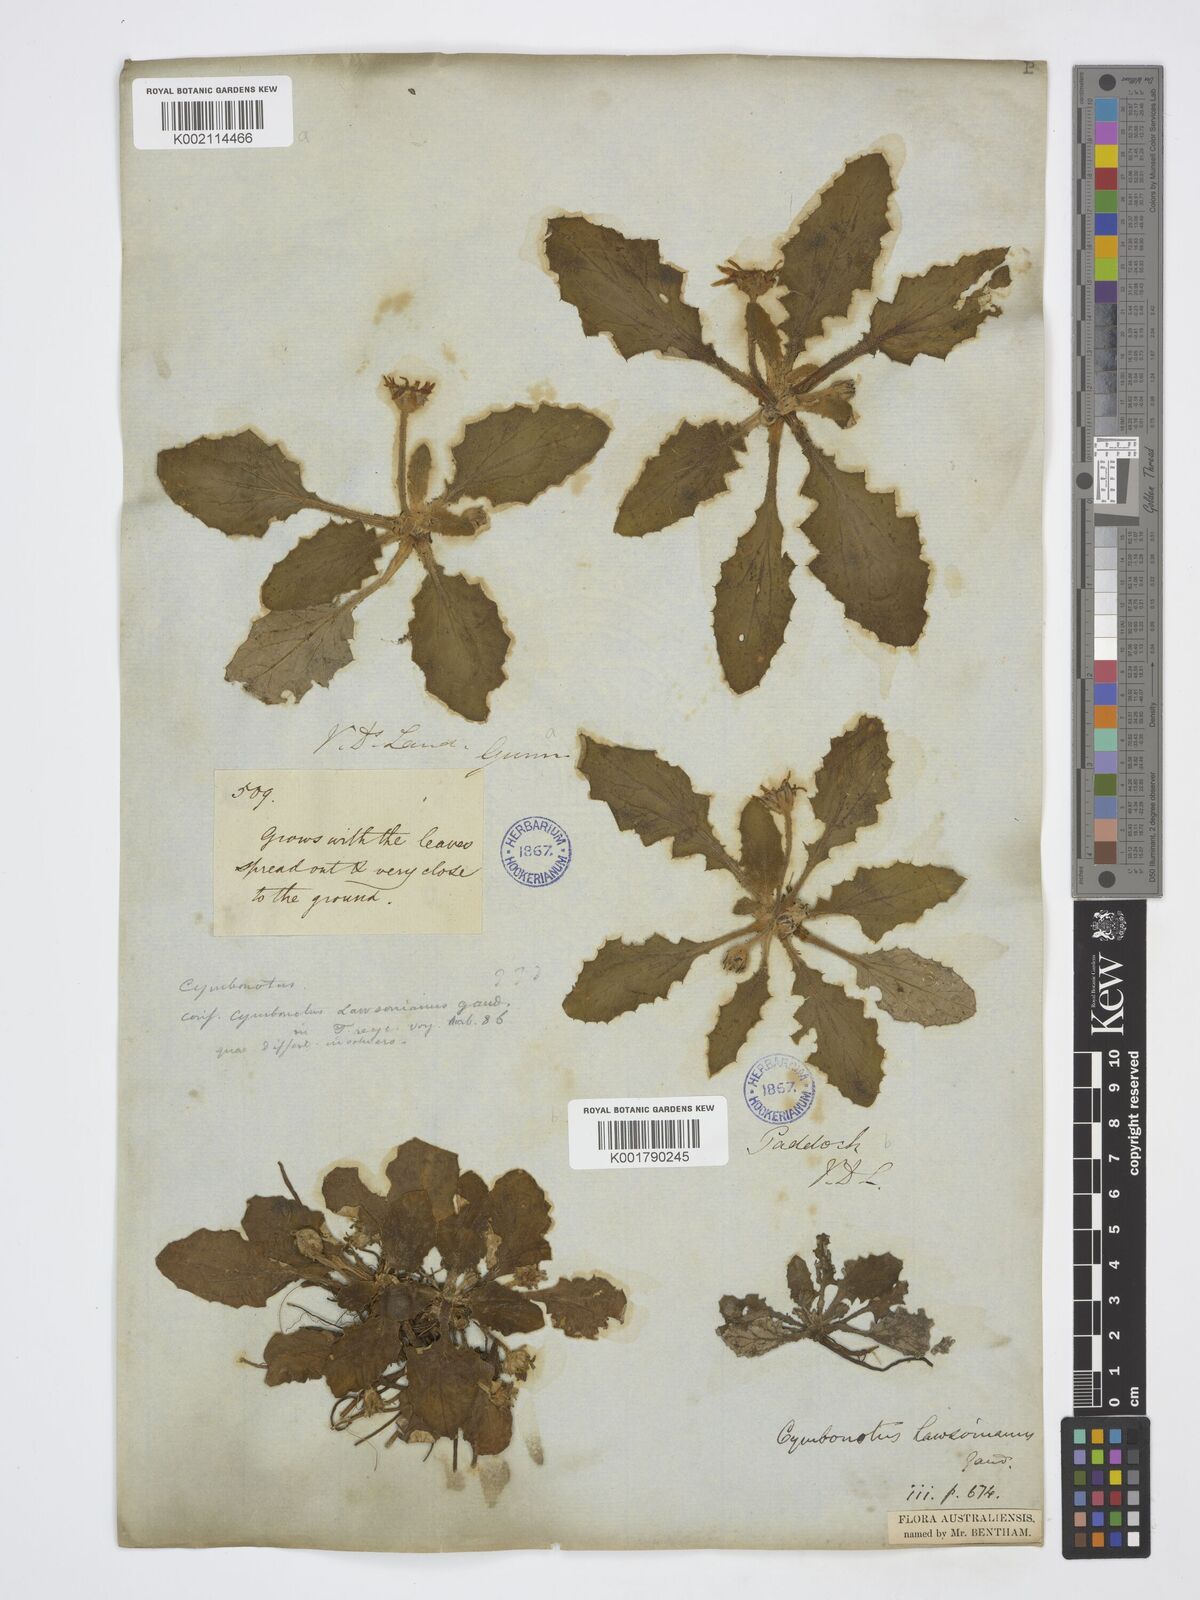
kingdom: Plantae
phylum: Tracheophyta
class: Magnoliopsida
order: Asterales
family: Asteraceae
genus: Cymbonotus
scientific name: Cymbonotus lawsonianus
